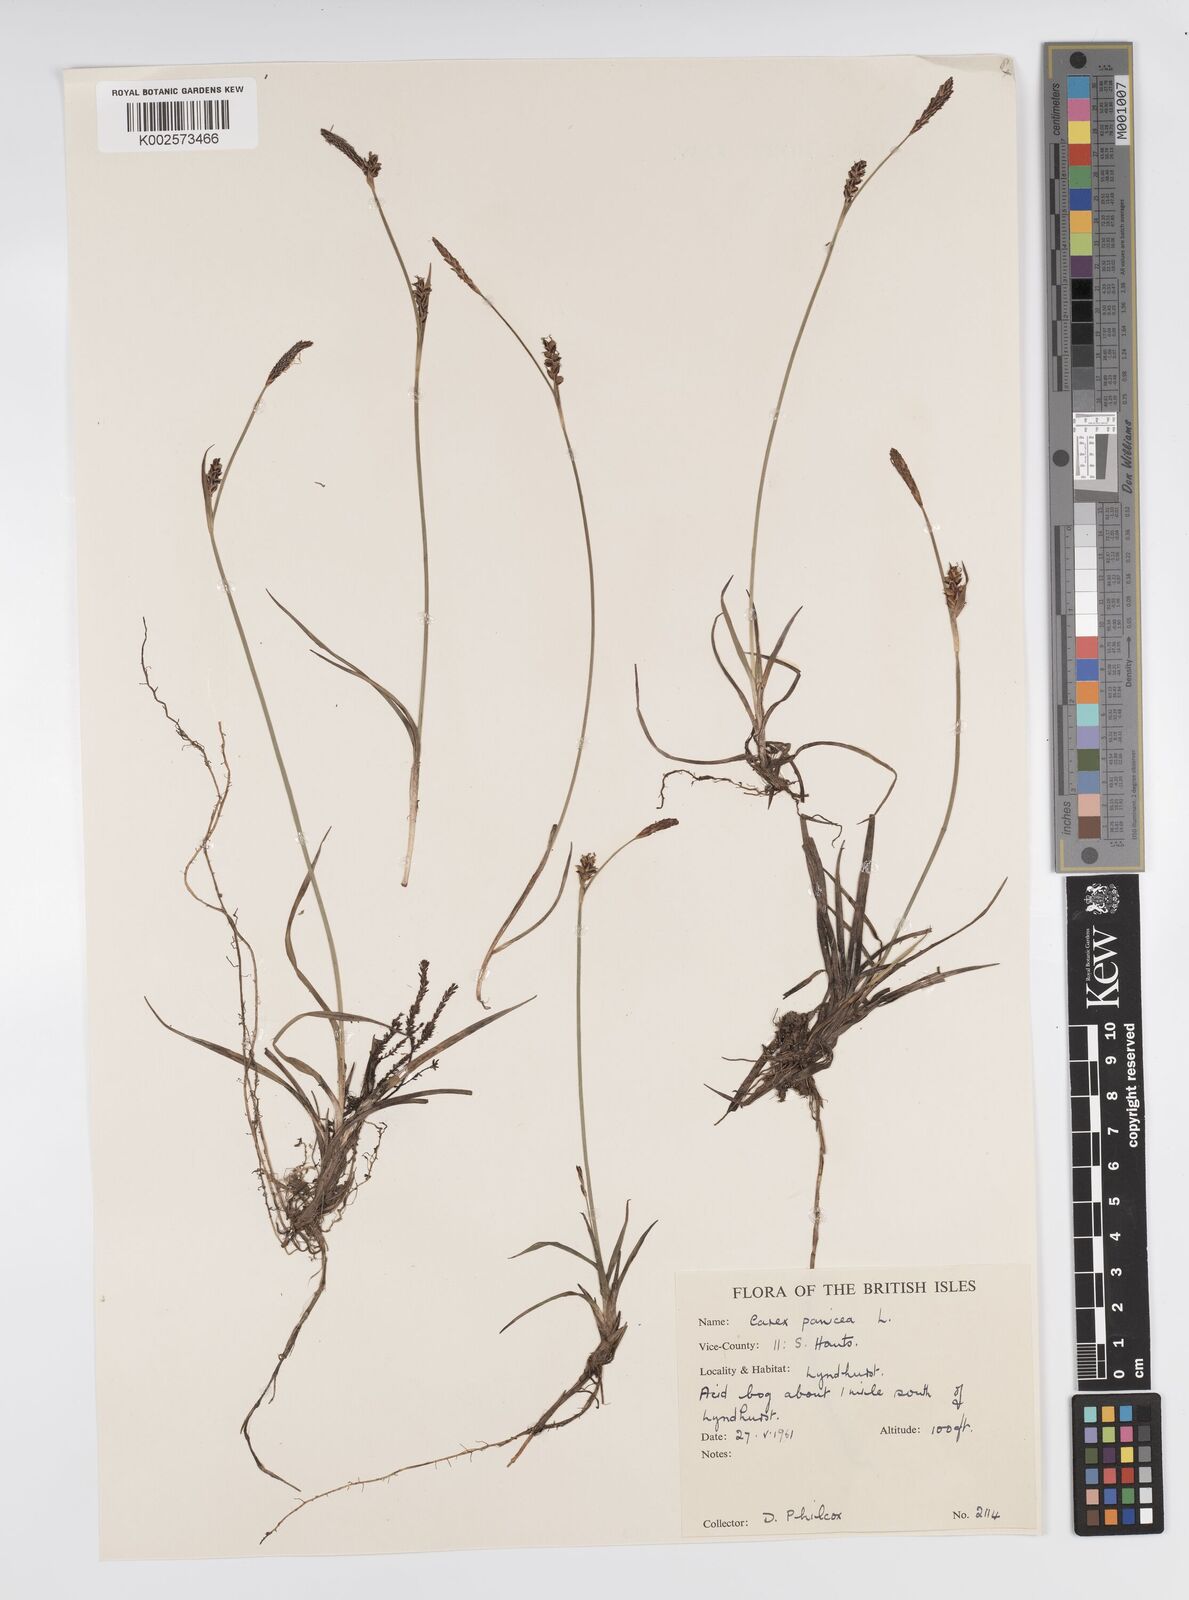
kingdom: Plantae
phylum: Tracheophyta
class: Liliopsida
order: Poales
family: Cyperaceae
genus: Carex
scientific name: Carex panicea
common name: Carnation sedge
